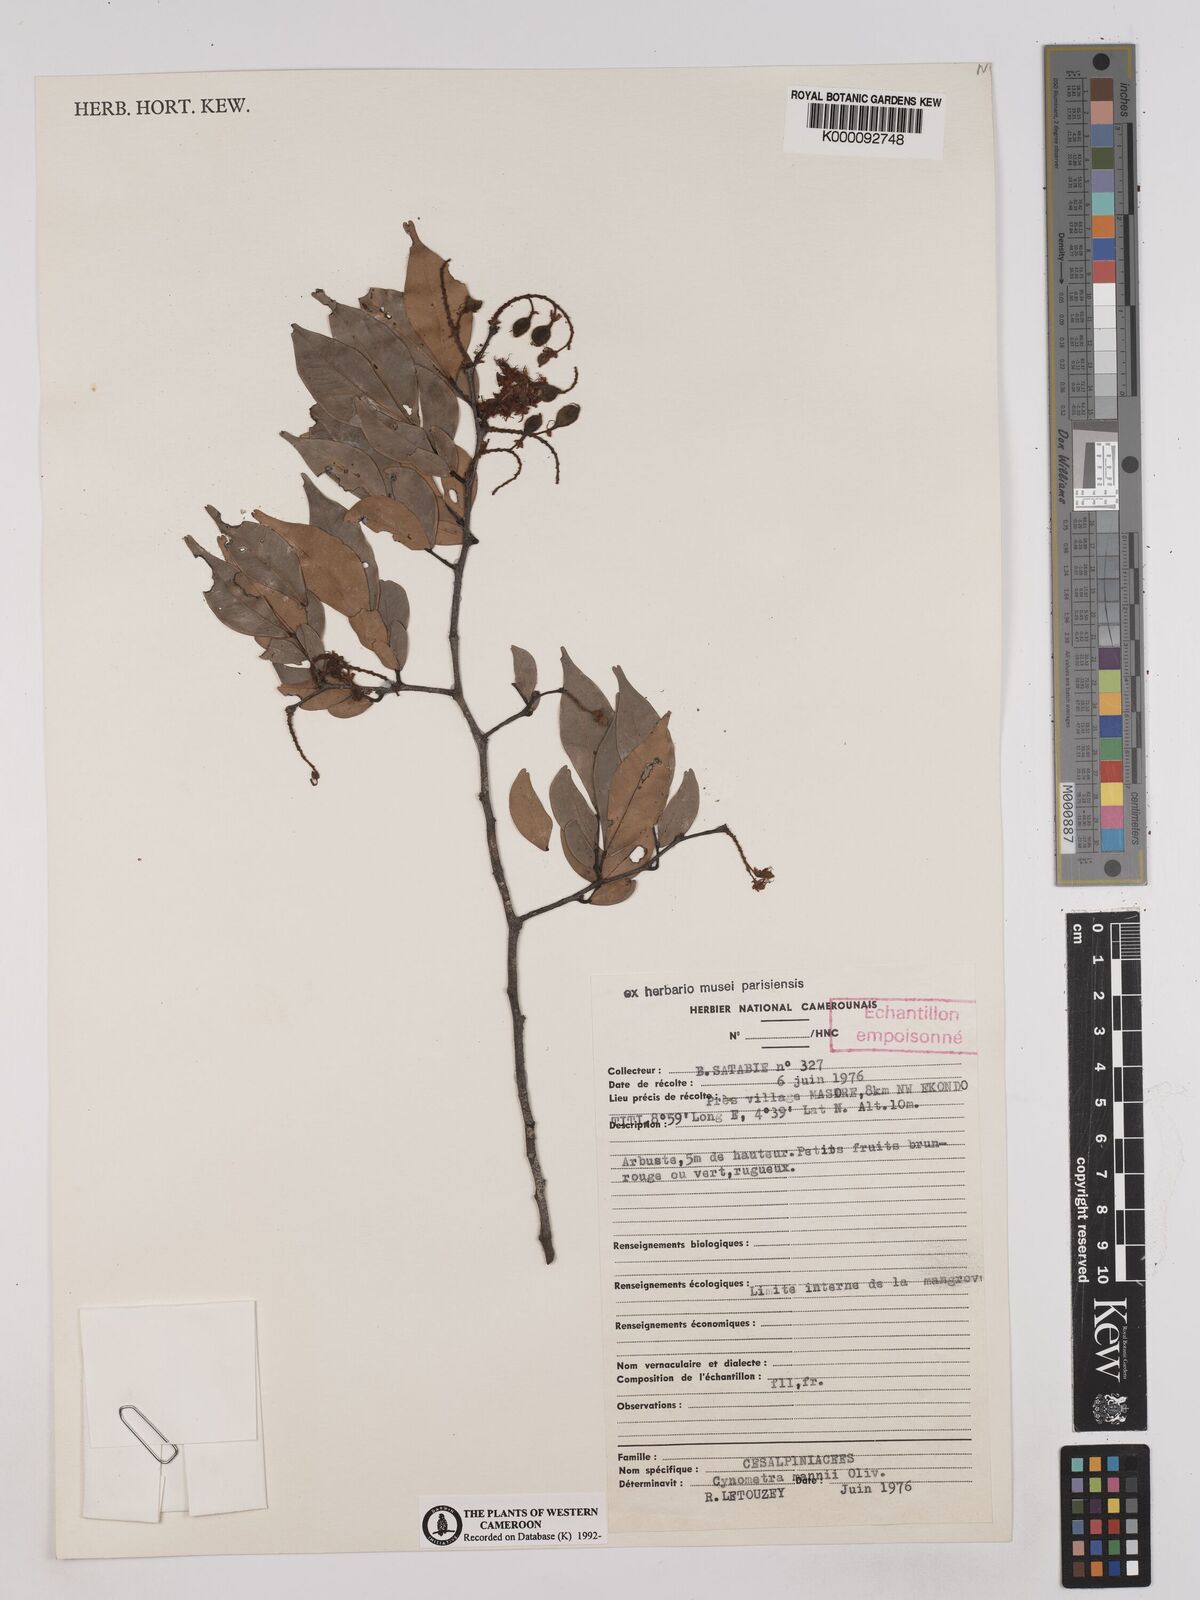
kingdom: Plantae
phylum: Tracheophyta
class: Magnoliopsida
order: Fabales
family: Fabaceae
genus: Cynometra
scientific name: Cynometra mannii
